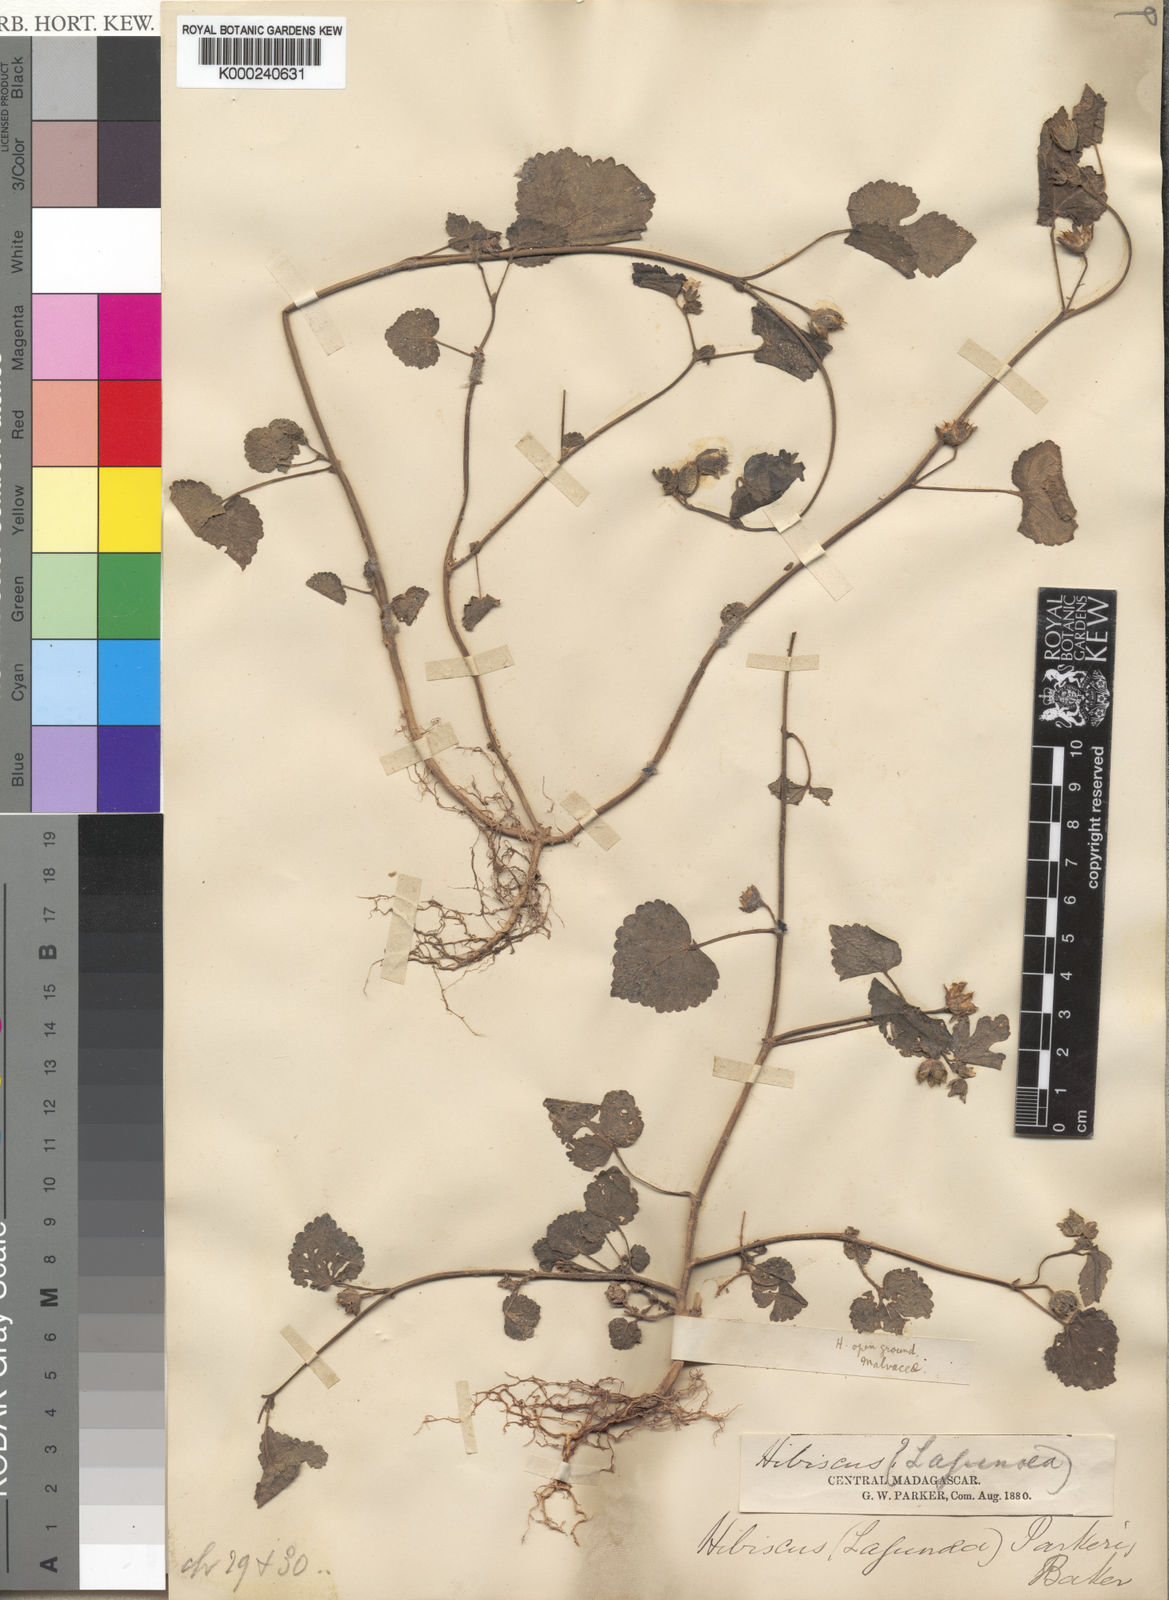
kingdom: Plantae
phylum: Tracheophyta
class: Magnoliopsida
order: Malvales
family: Malvaceae
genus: Hibiscus
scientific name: Hibiscus lobatus
